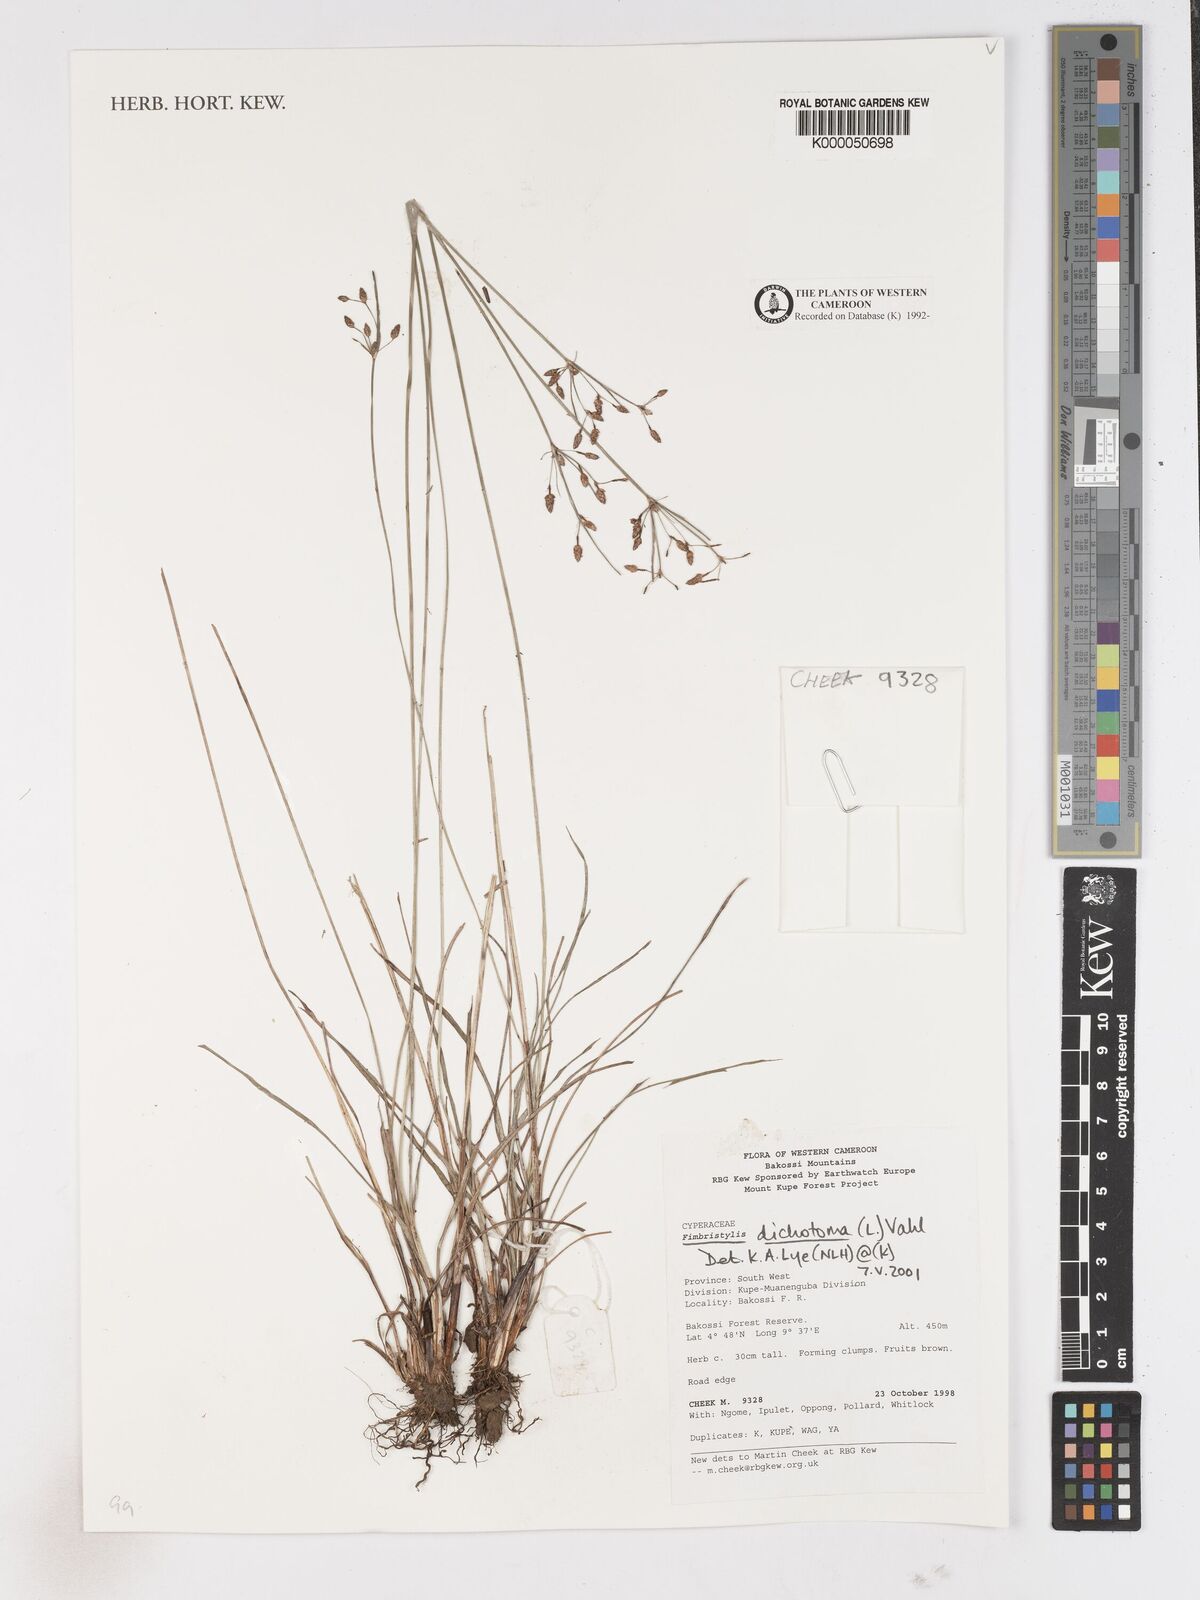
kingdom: Plantae
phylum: Tracheophyta
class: Liliopsida
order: Poales
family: Cyperaceae
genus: Fimbristylis
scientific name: Fimbristylis dichotoma
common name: Forked fimbry
